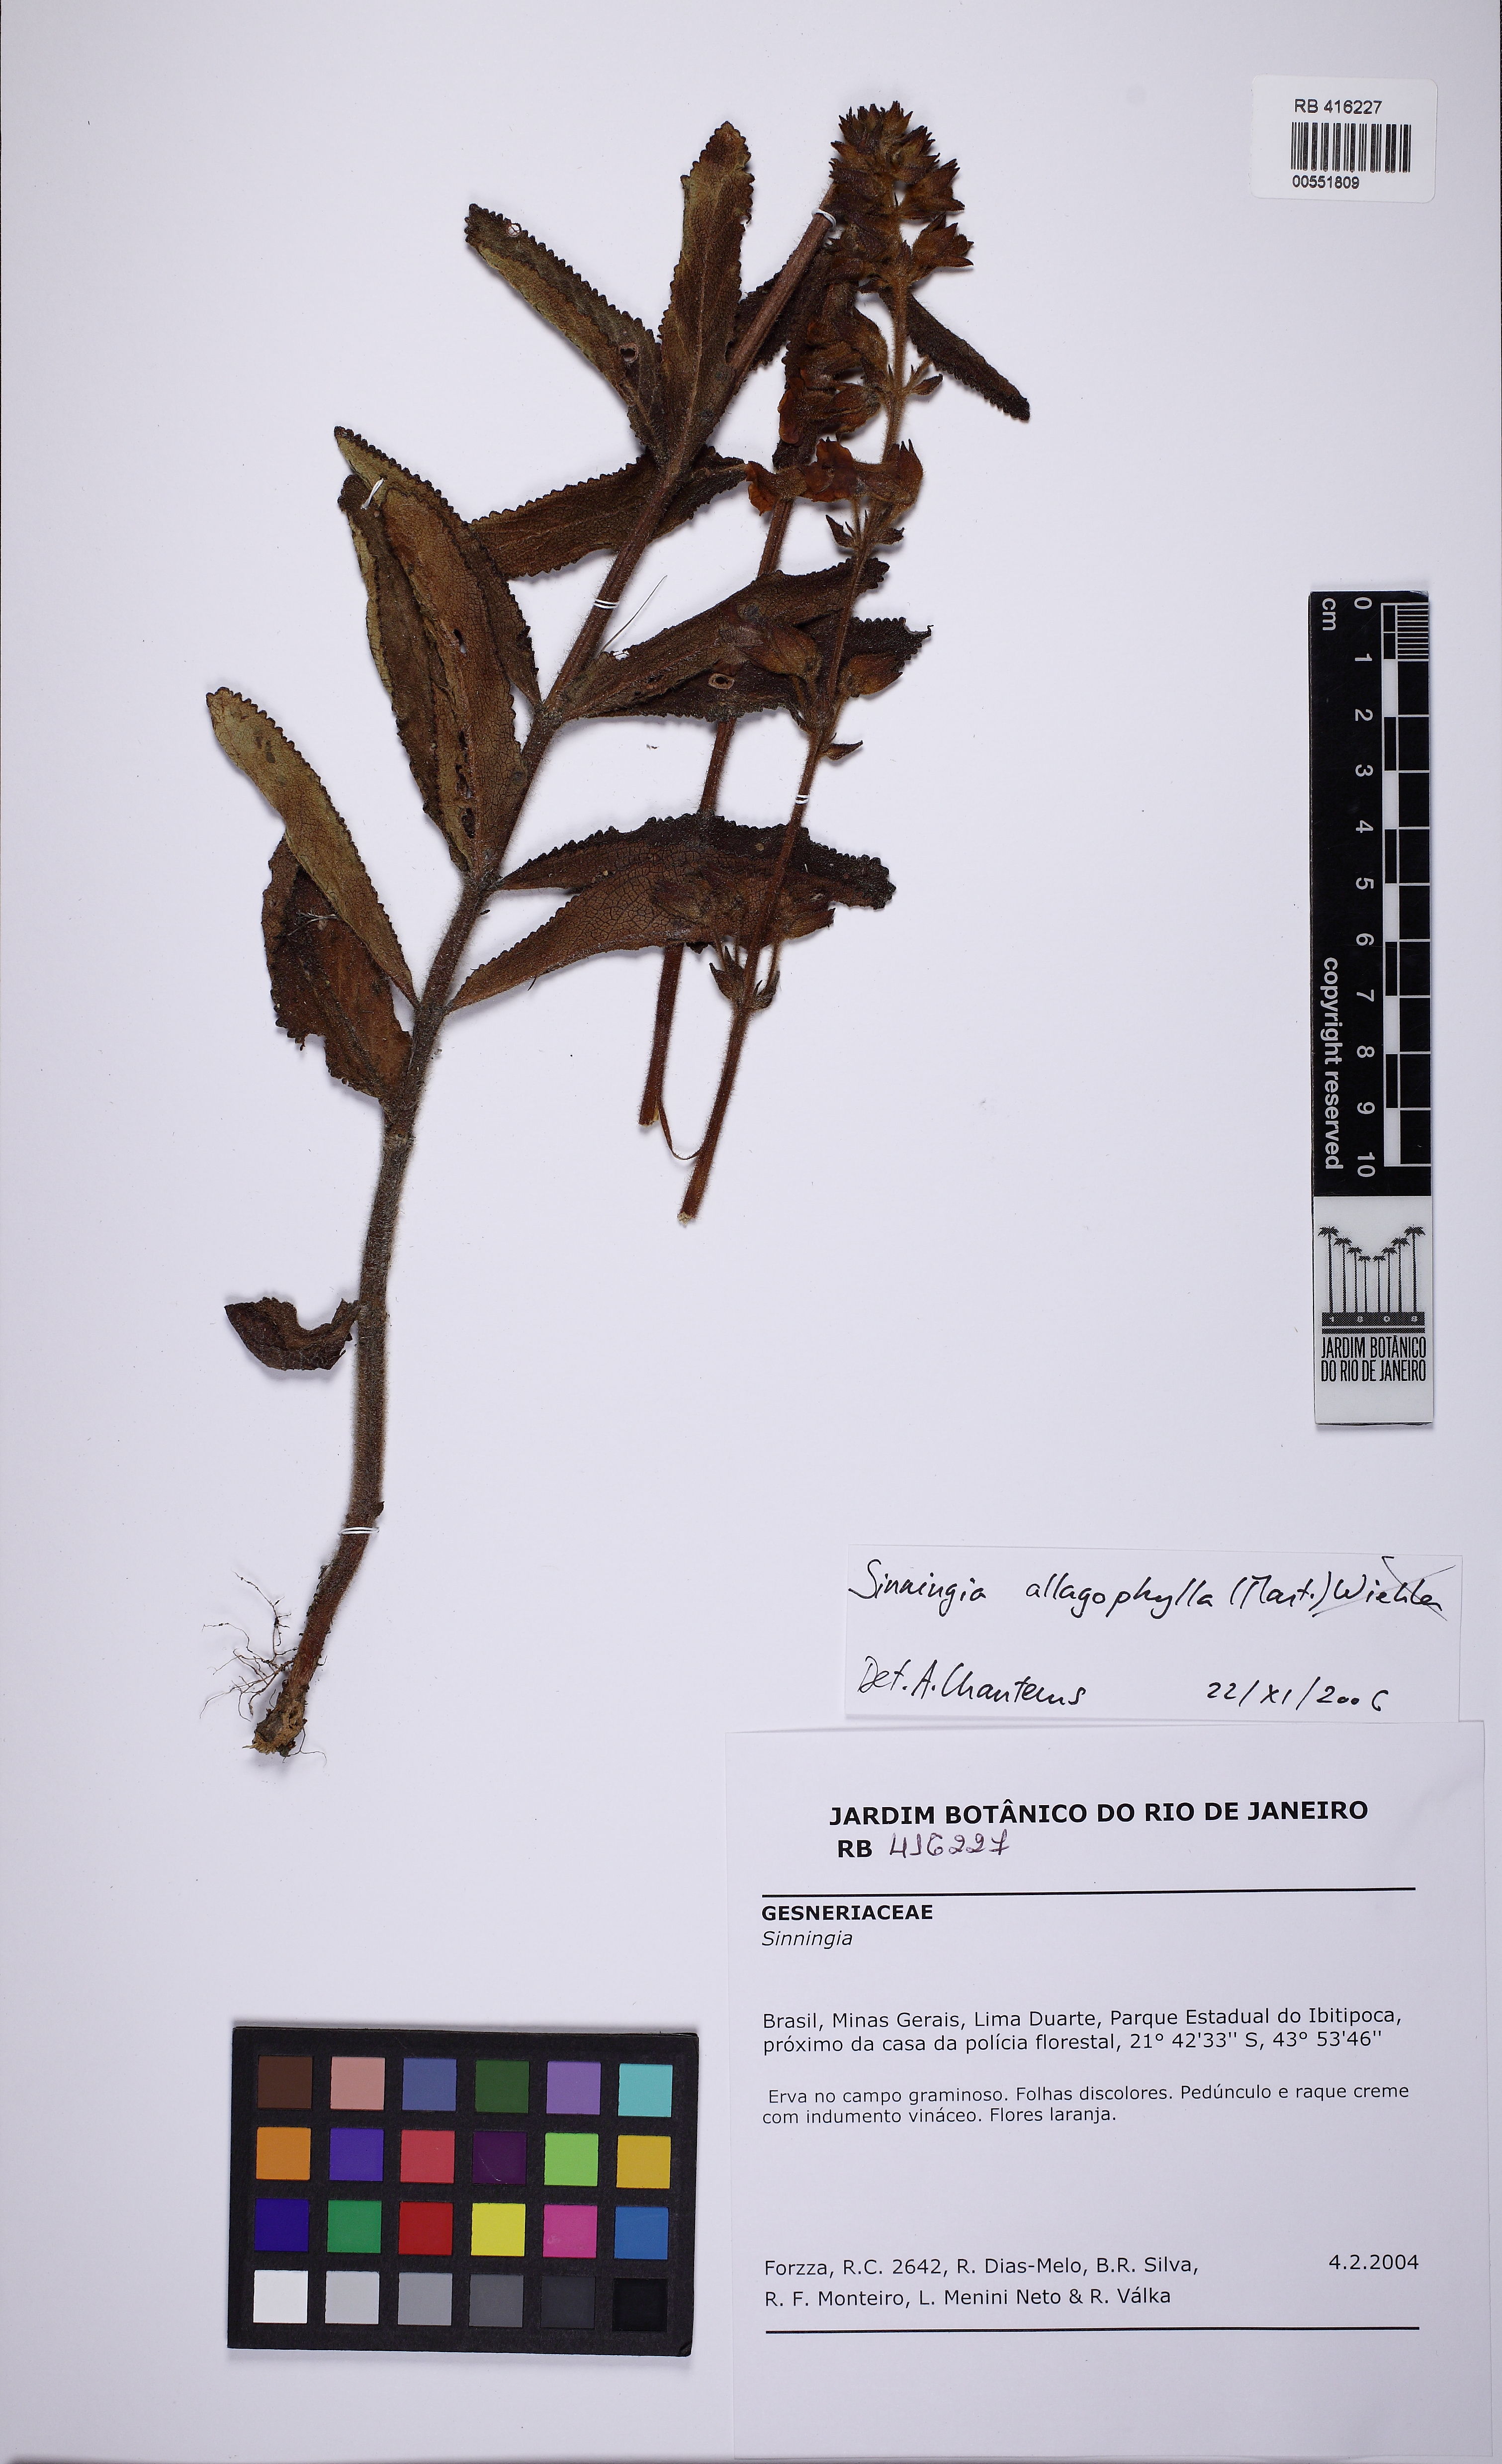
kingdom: Plantae
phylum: Tracheophyta
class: Magnoliopsida
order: Lamiales
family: Gesneriaceae
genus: Sinningia
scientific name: Sinningia allagophylla
